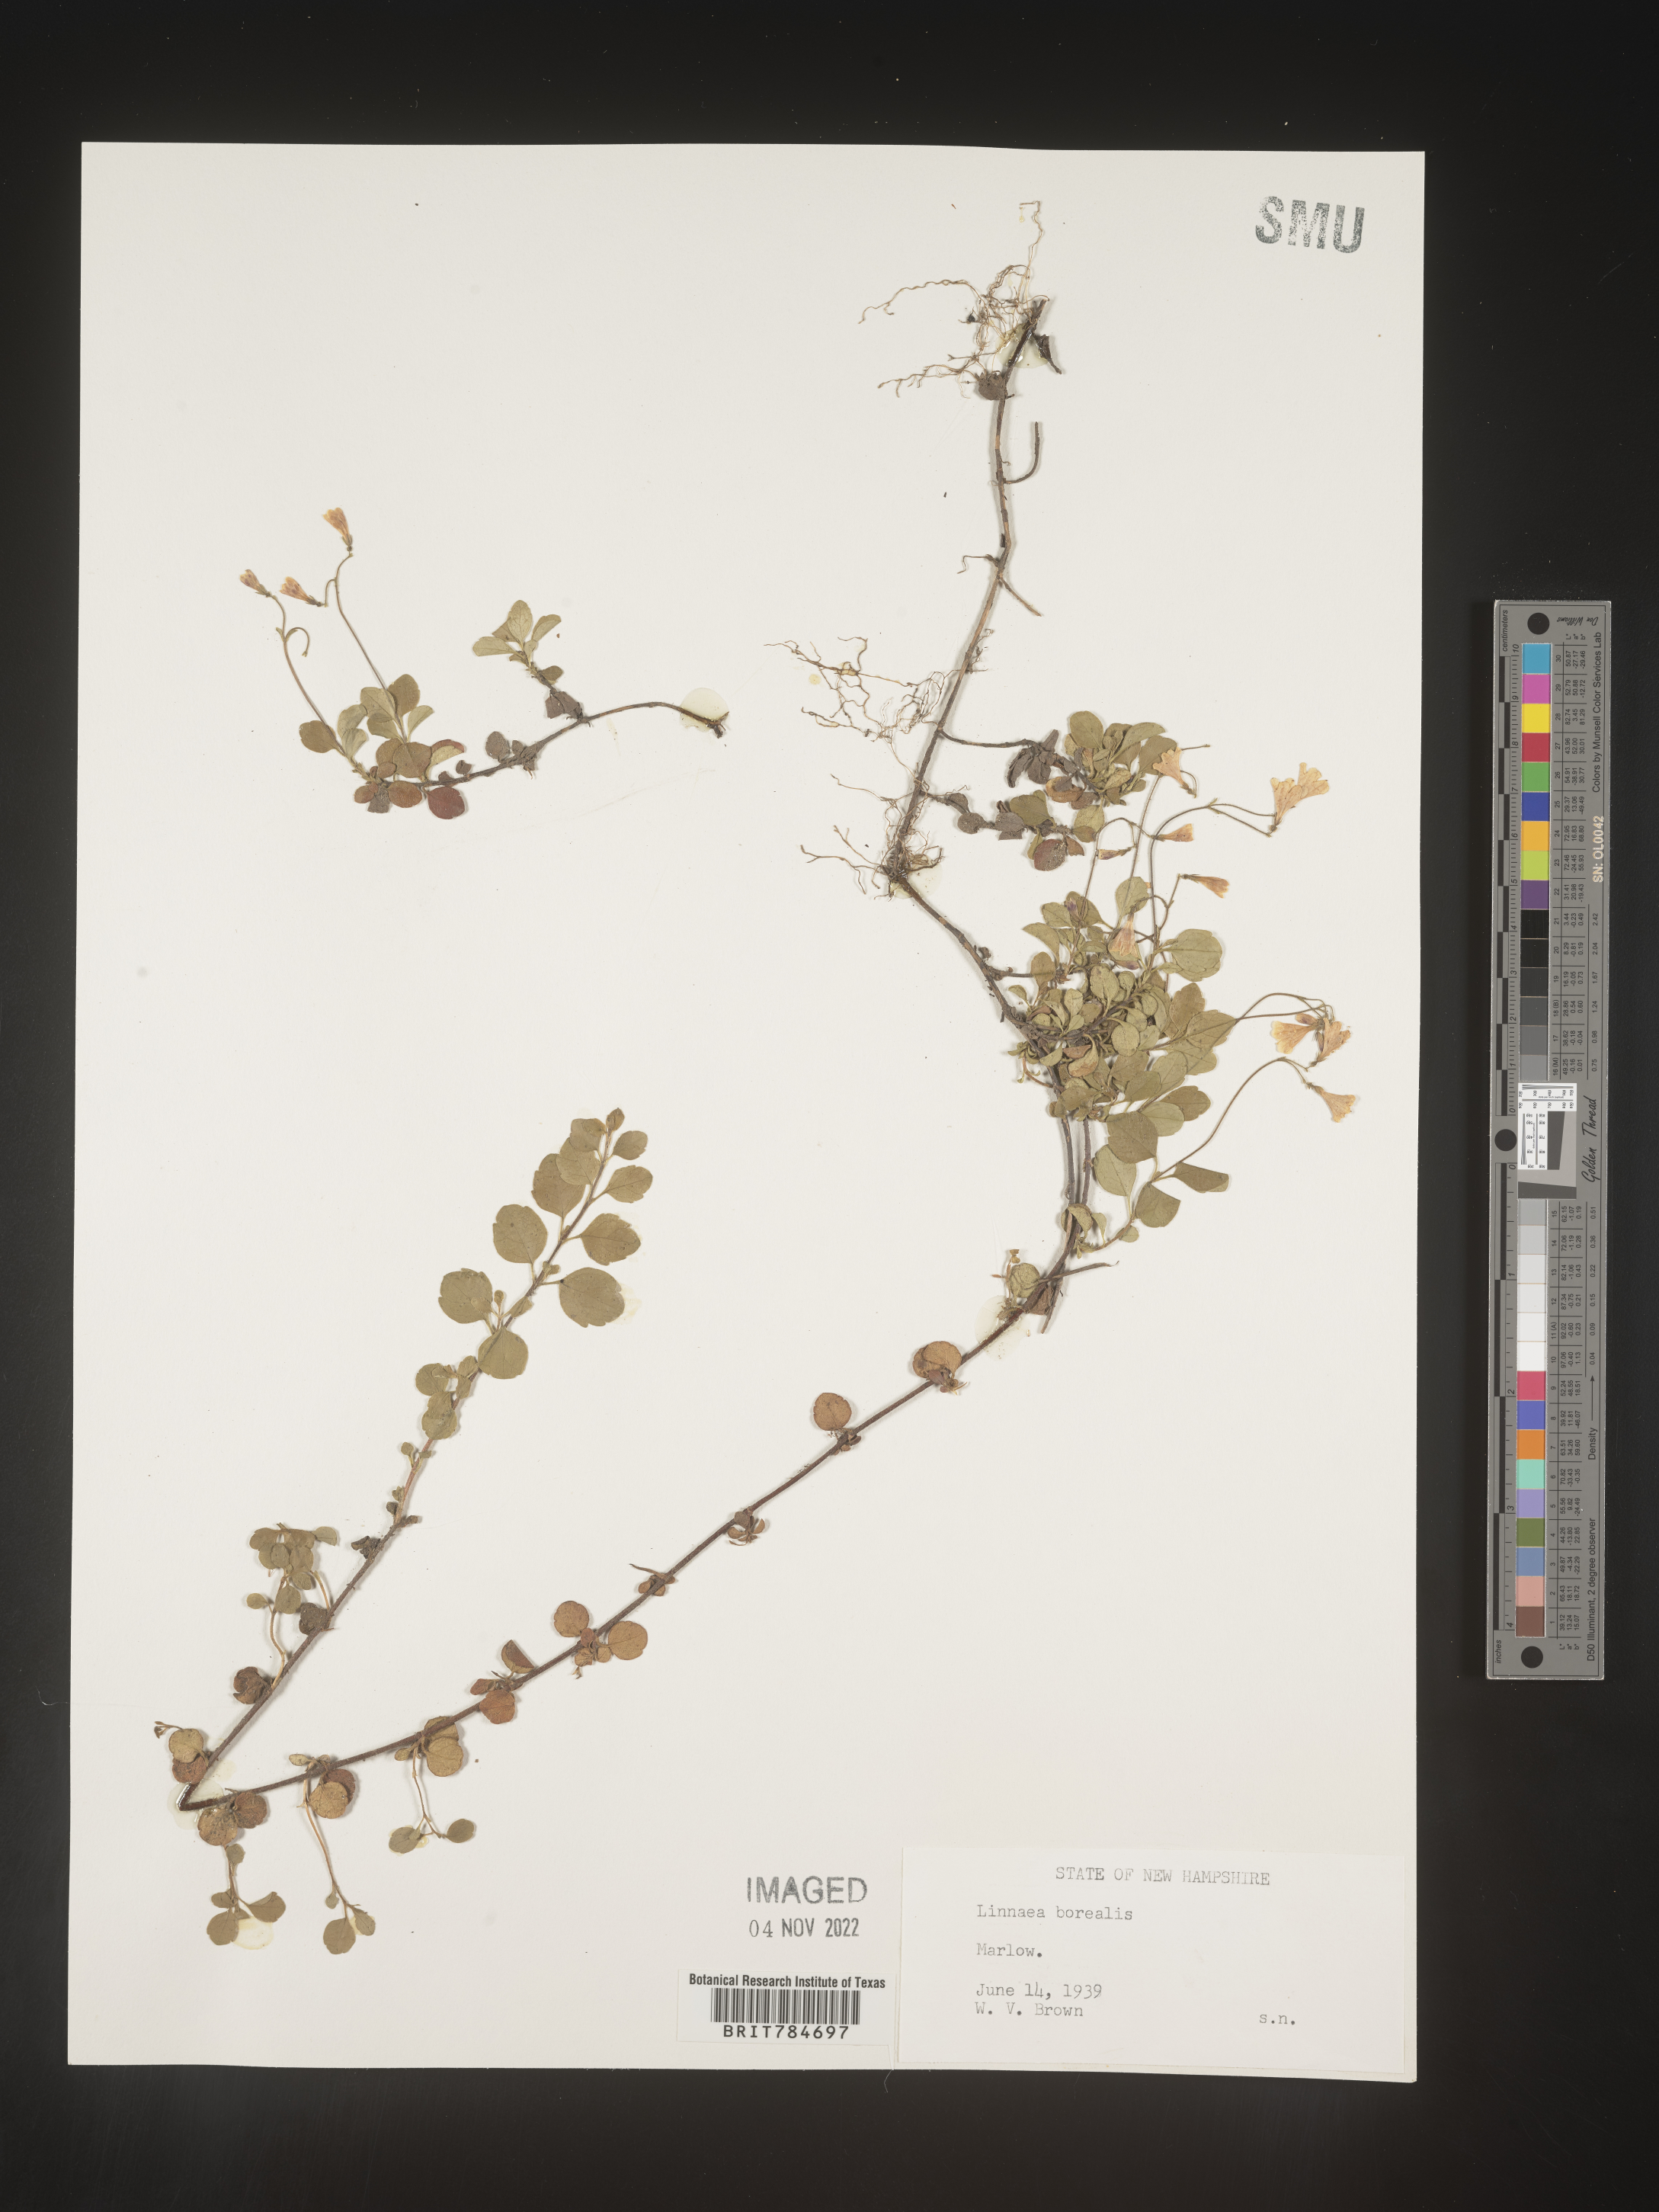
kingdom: Plantae
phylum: Tracheophyta
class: Magnoliopsida
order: Dipsacales
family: Caprifoliaceae
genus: Linnaea
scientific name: Linnaea borealis
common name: Twinflower
